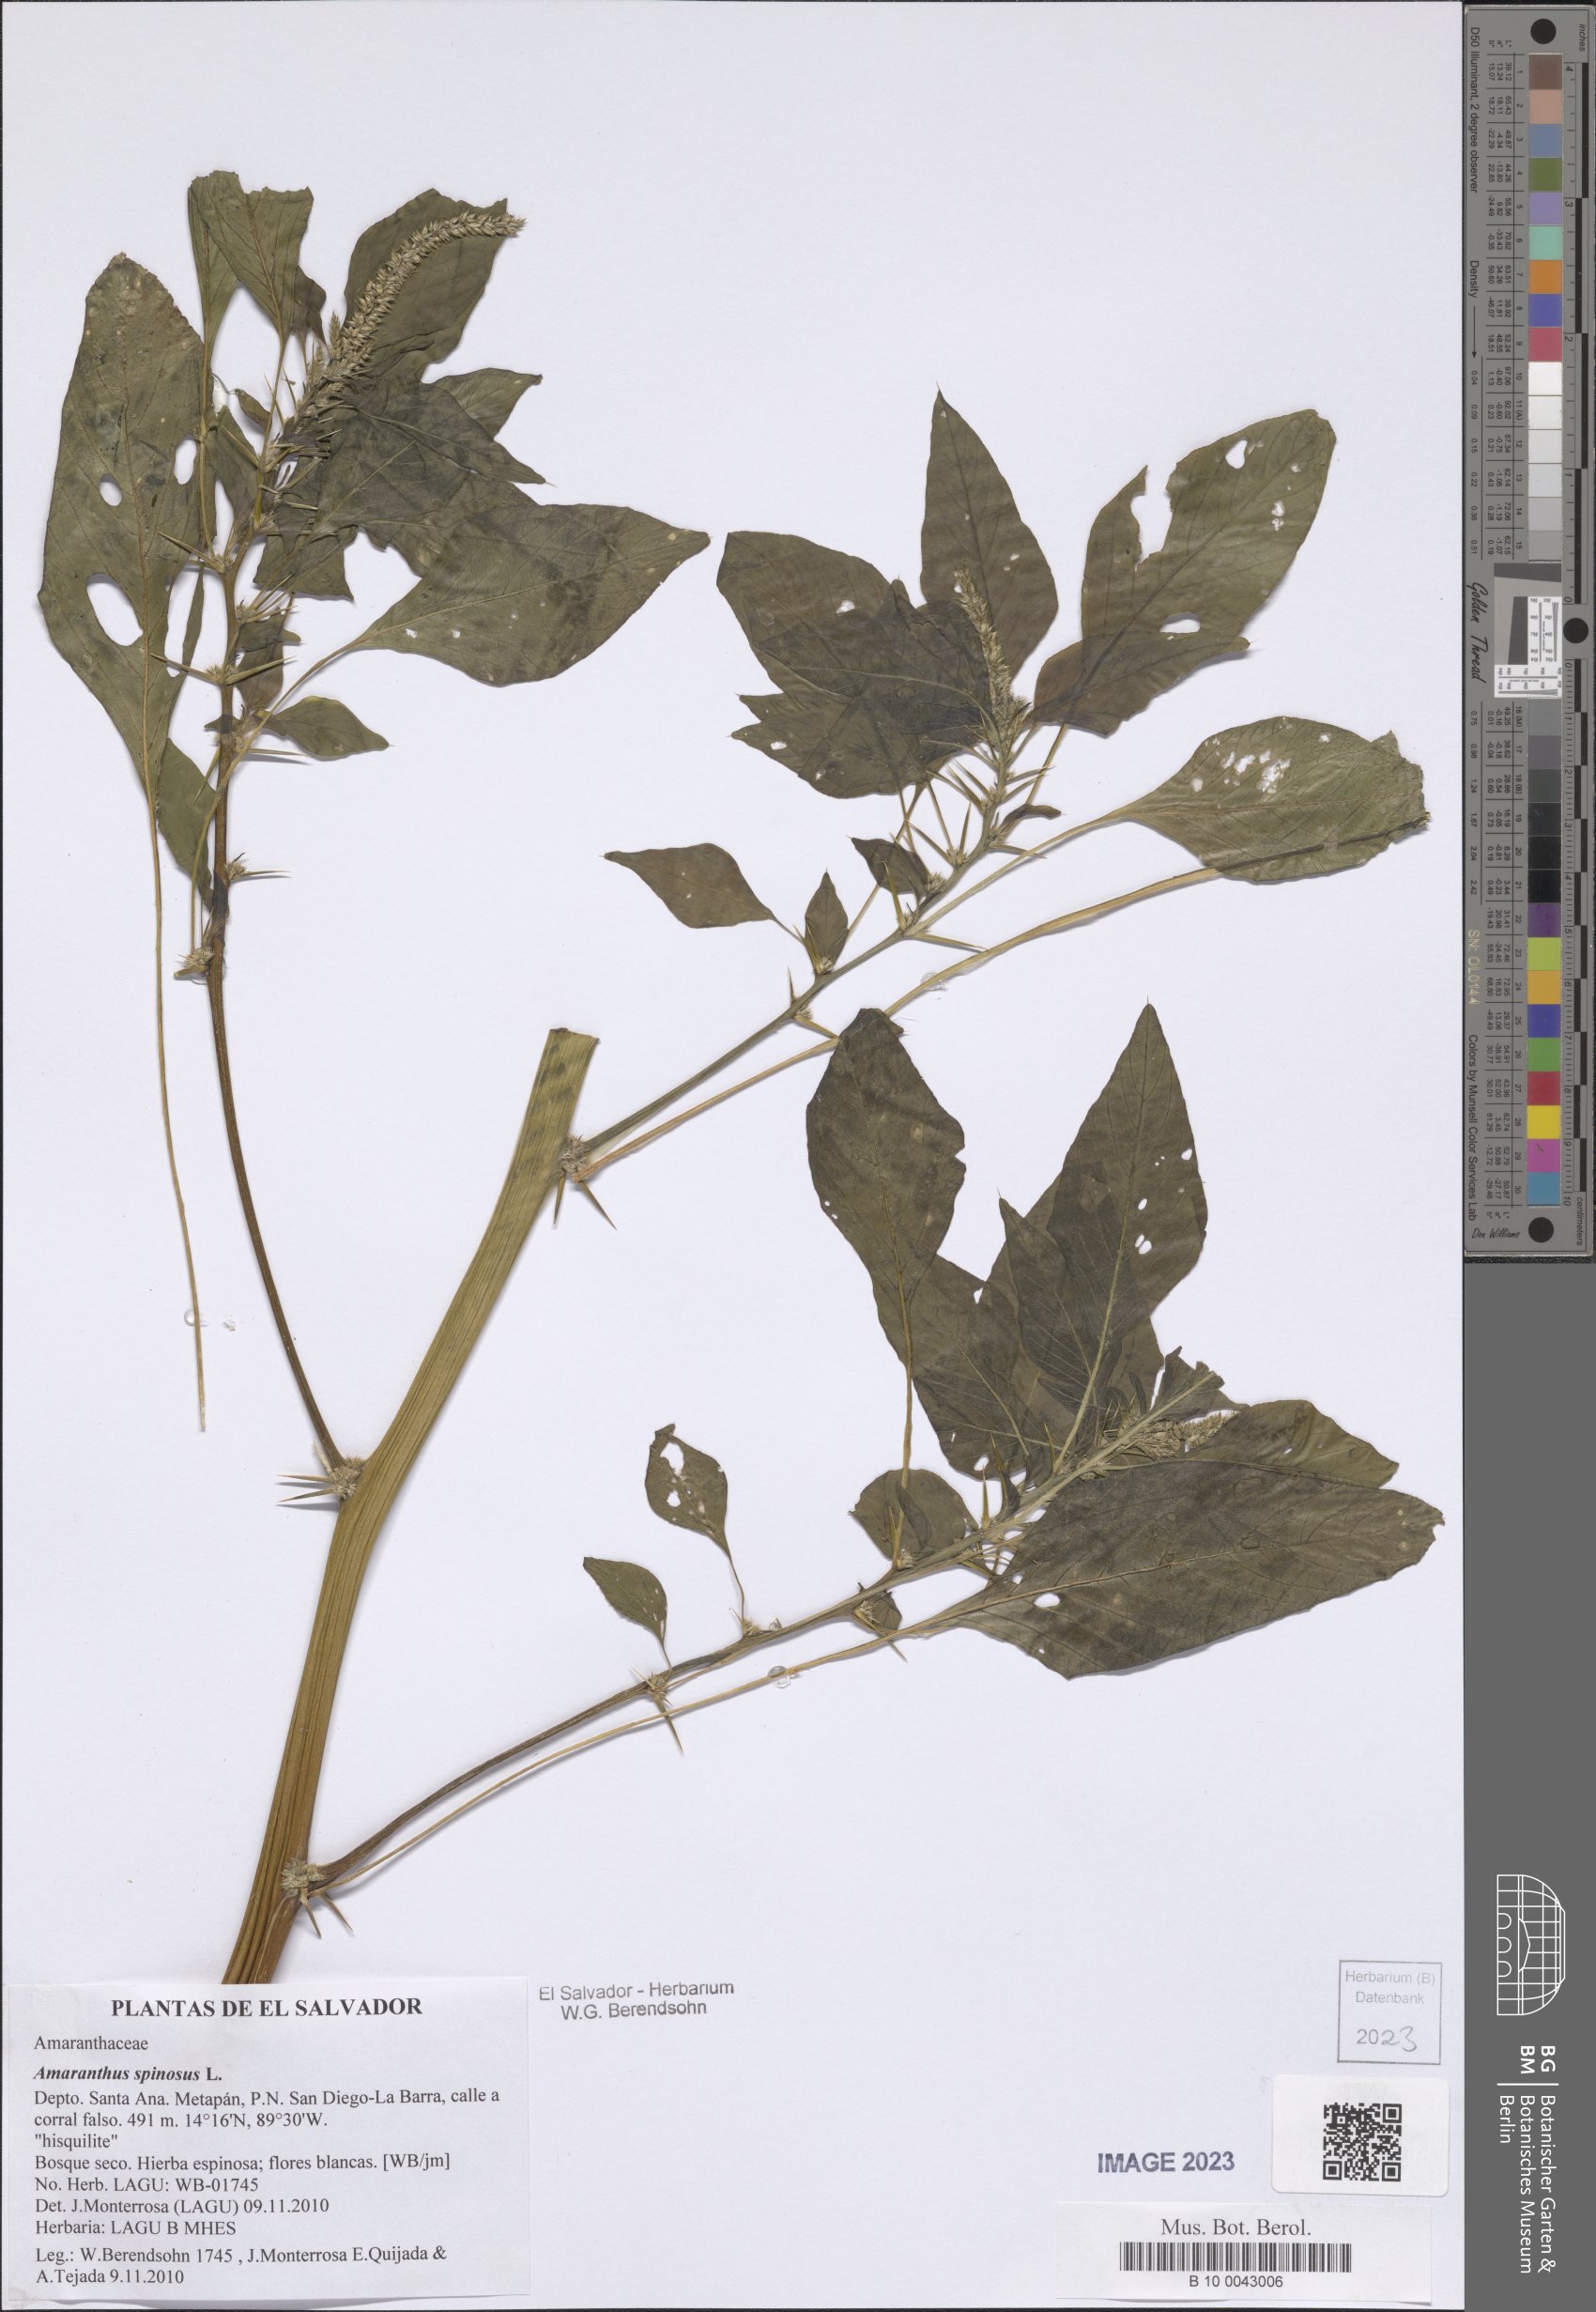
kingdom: Plantae
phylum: Tracheophyta
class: Magnoliopsida
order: Caryophyllales
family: Amaranthaceae
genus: Amaranthus
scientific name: Amaranthus spinosus
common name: Spiny amaranth
